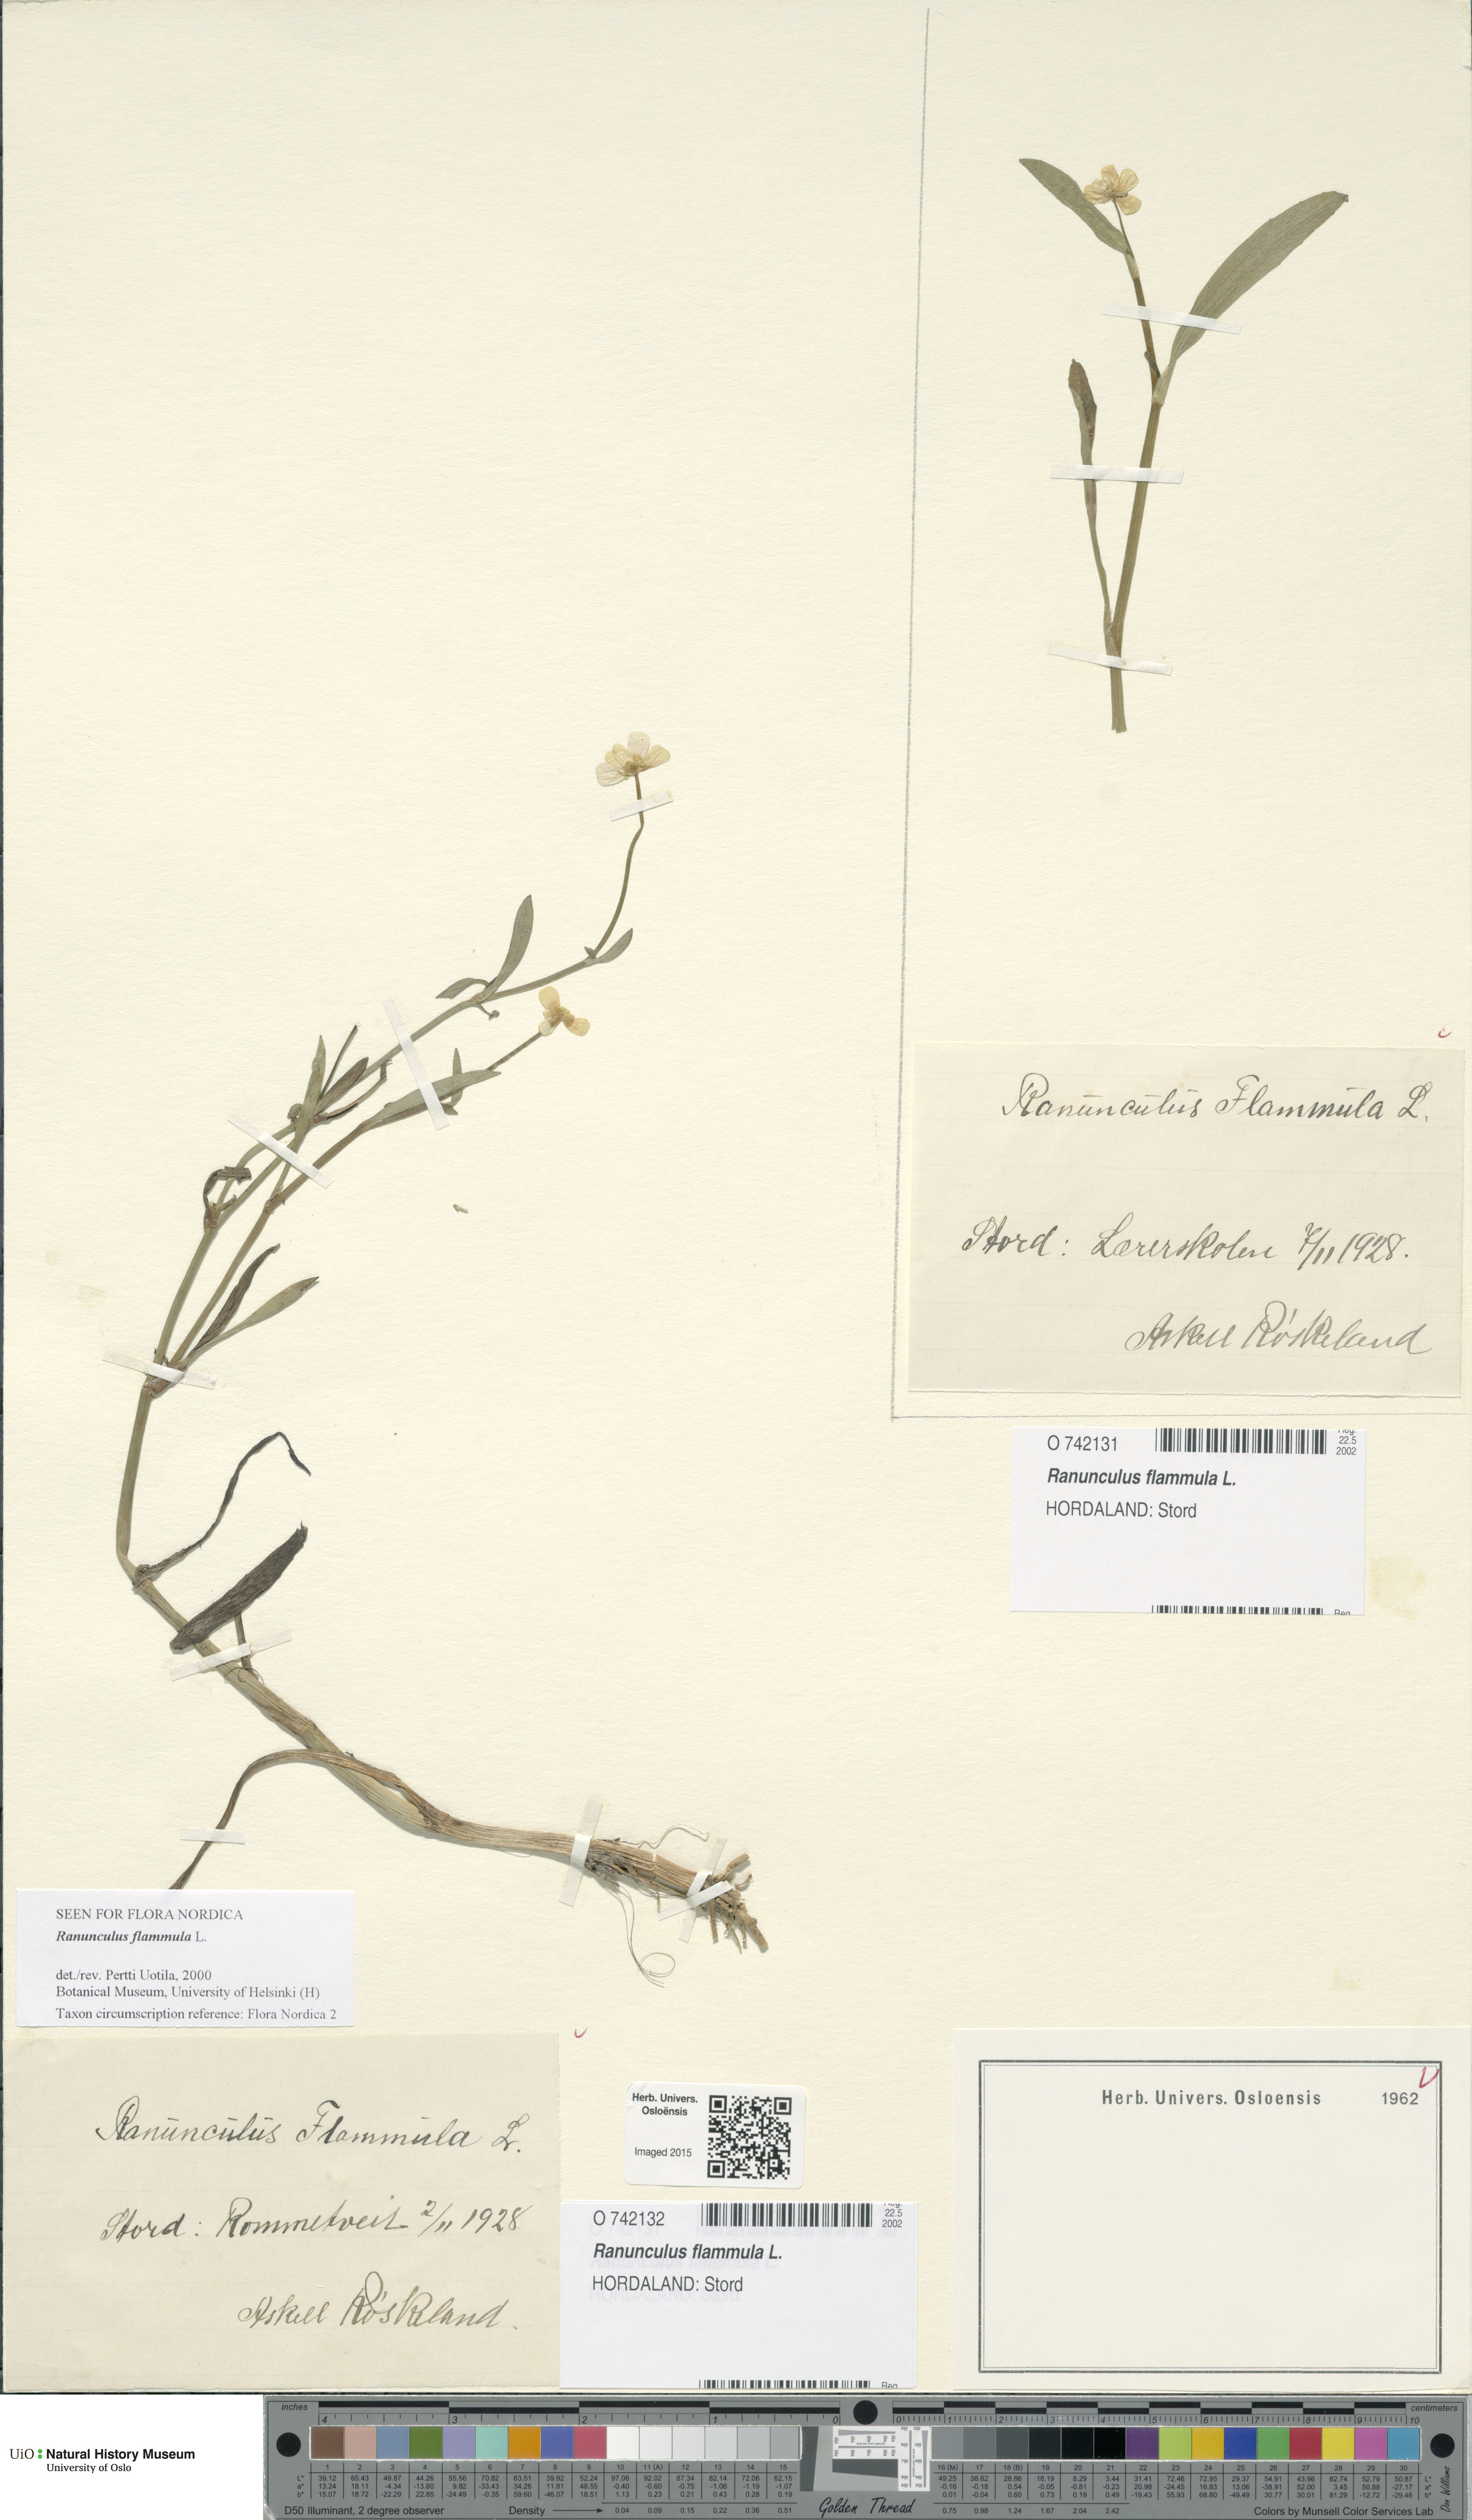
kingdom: Plantae
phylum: Tracheophyta
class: Magnoliopsida
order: Ranunculales
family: Ranunculaceae
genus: Ranunculus
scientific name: Ranunculus flammula
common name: Lesser spearwort
